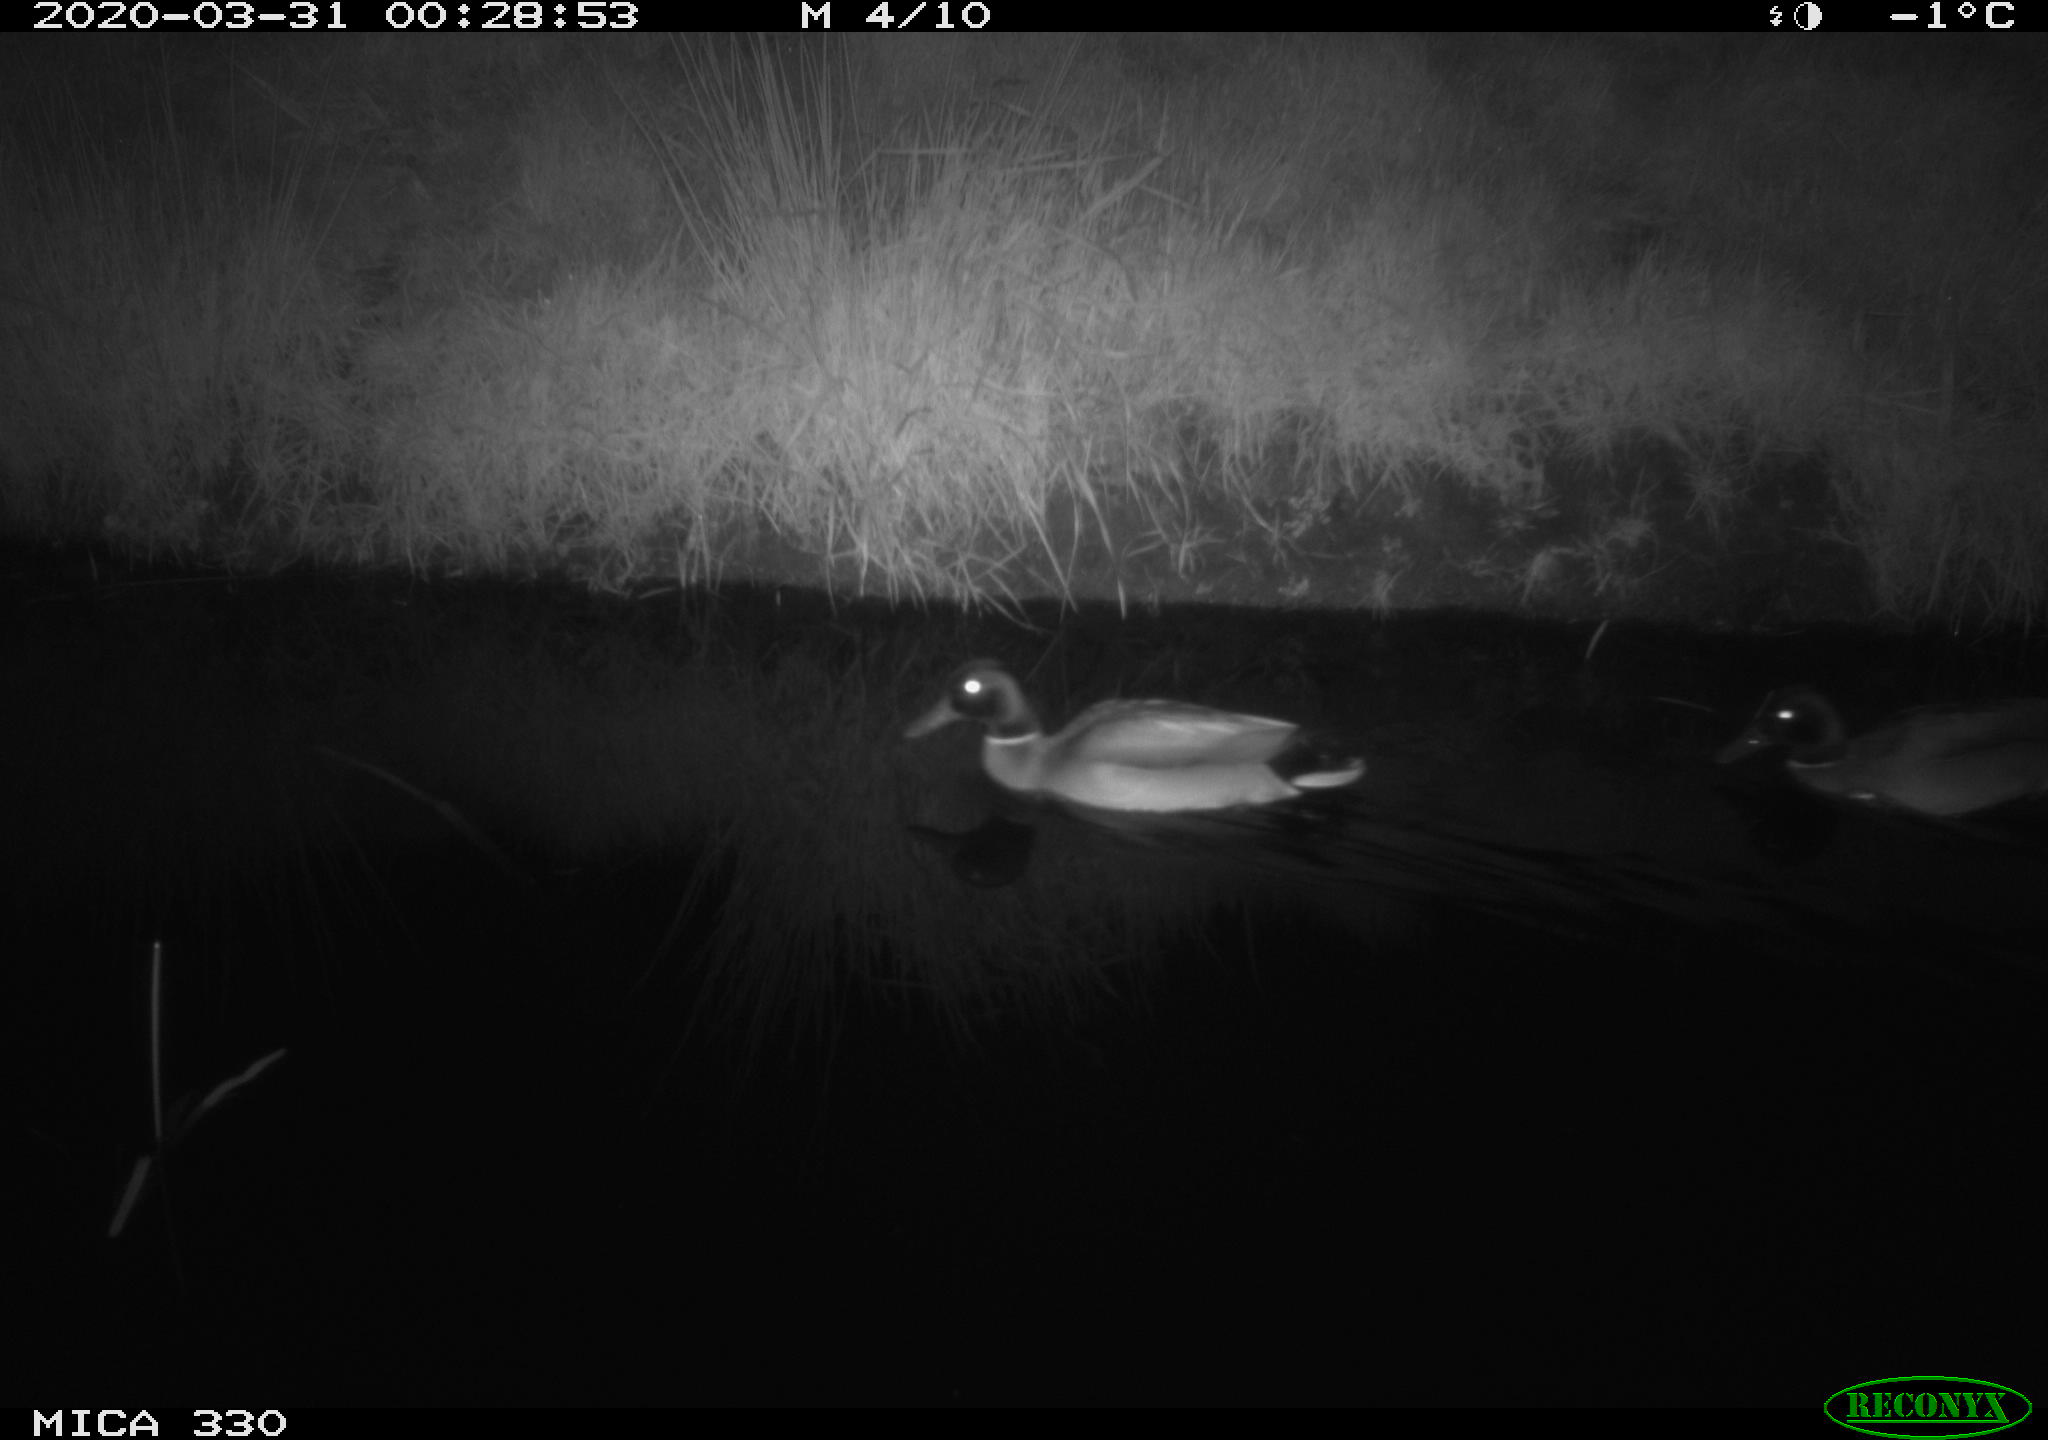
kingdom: Animalia
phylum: Chordata
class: Aves
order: Anseriformes
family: Anatidae
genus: Anas
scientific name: Anas platyrhynchos
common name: Mallard
